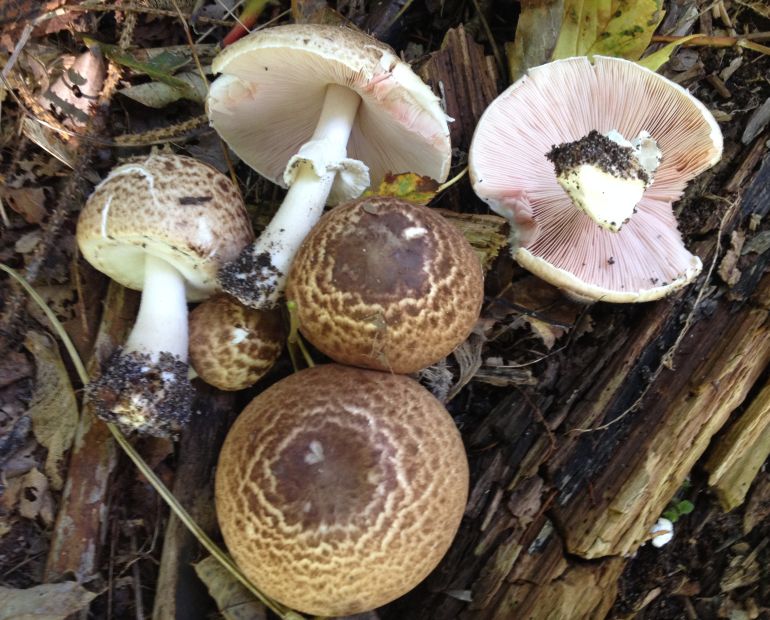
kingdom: Fungi
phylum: Basidiomycota
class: Agaricomycetes
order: Agaricales
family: Agaricaceae
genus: Agaricus
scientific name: Agaricus impudicus
